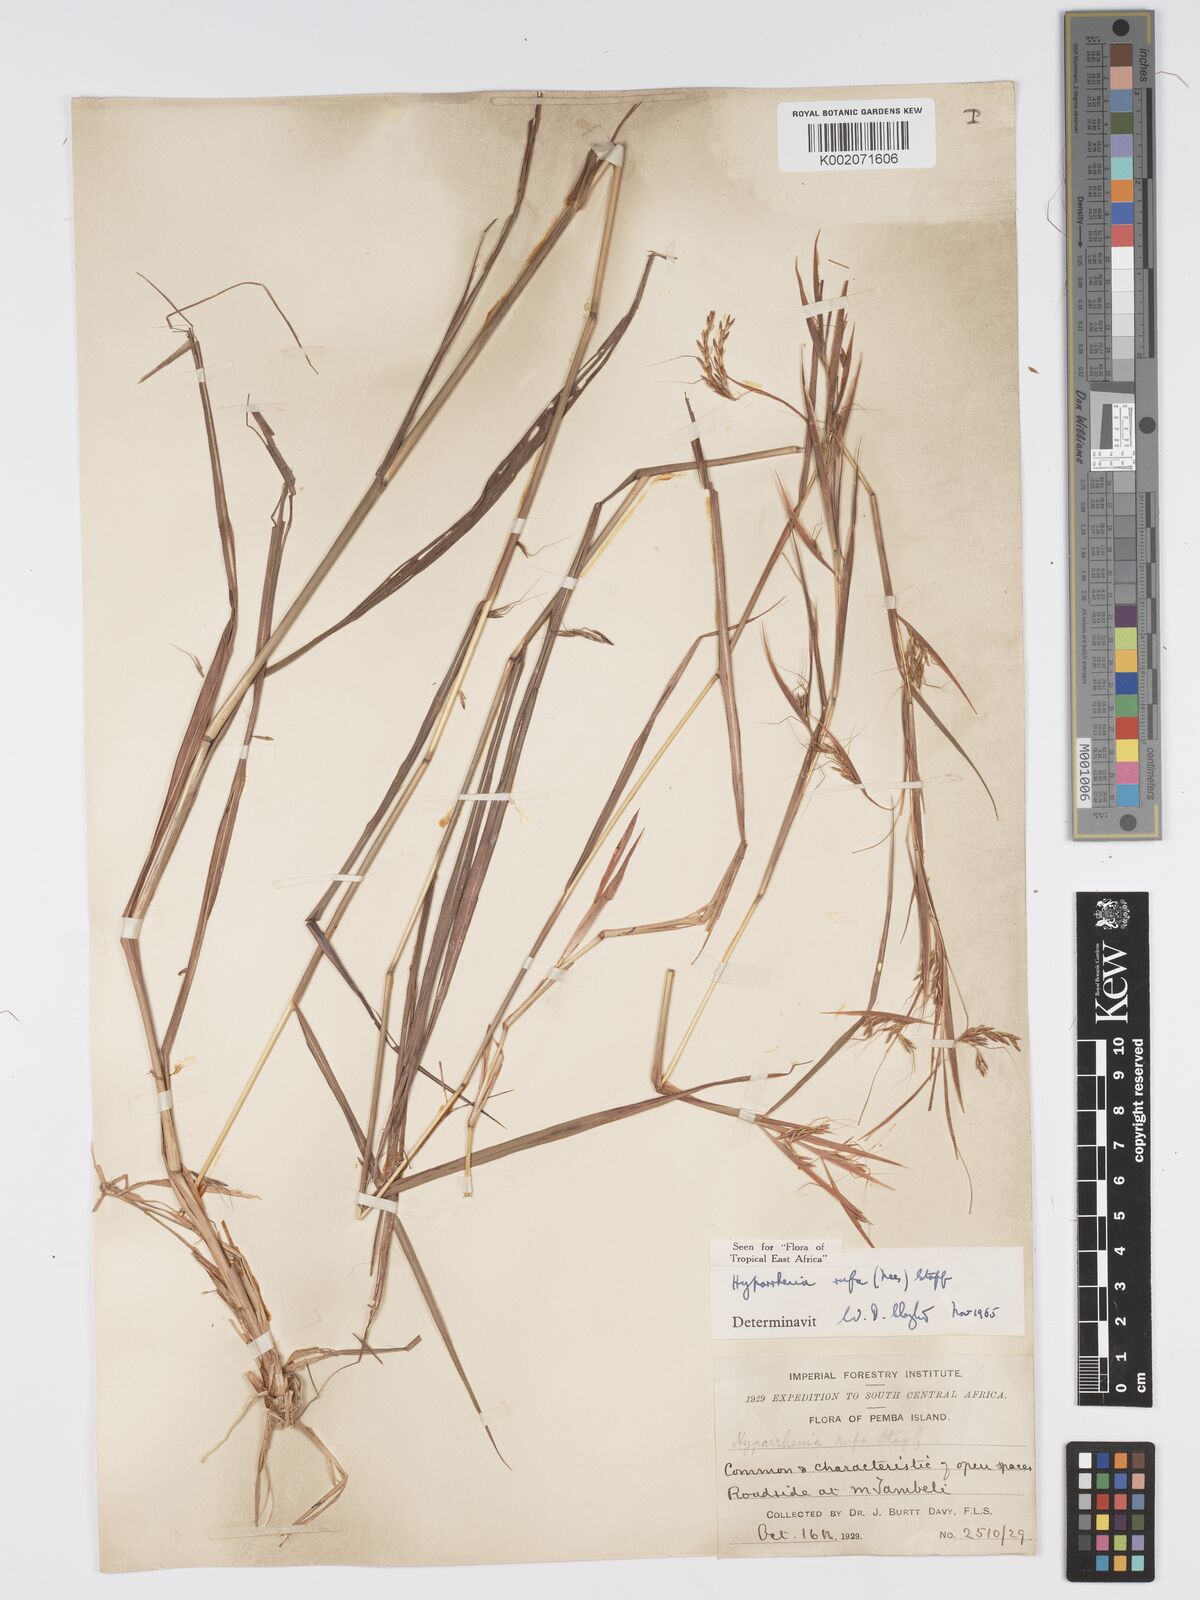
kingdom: Plantae
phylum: Tracheophyta
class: Liliopsida
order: Poales
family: Poaceae
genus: Hyparrhenia
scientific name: Hyparrhenia rufa
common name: Jaraguagrass
